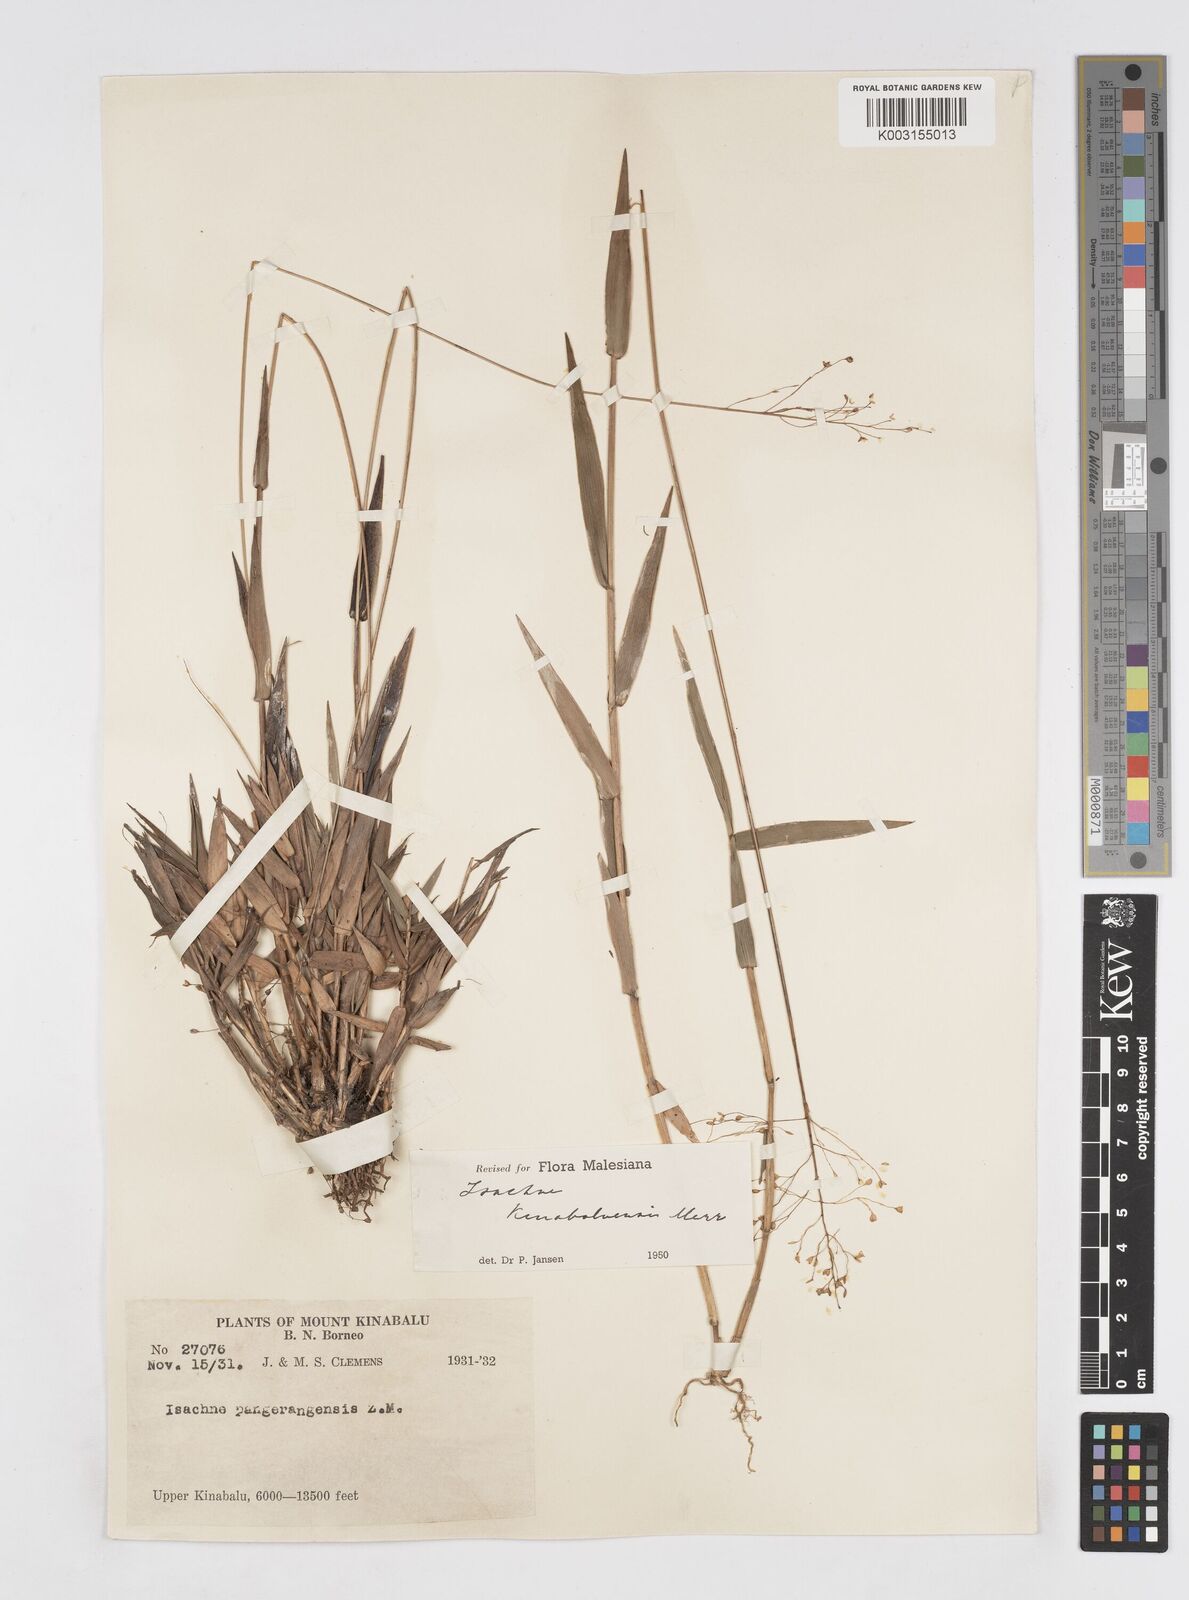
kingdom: Plantae
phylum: Tracheophyta
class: Liliopsida
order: Poales
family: Poaceae
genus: Isachne
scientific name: Isachne kinabaluensis
